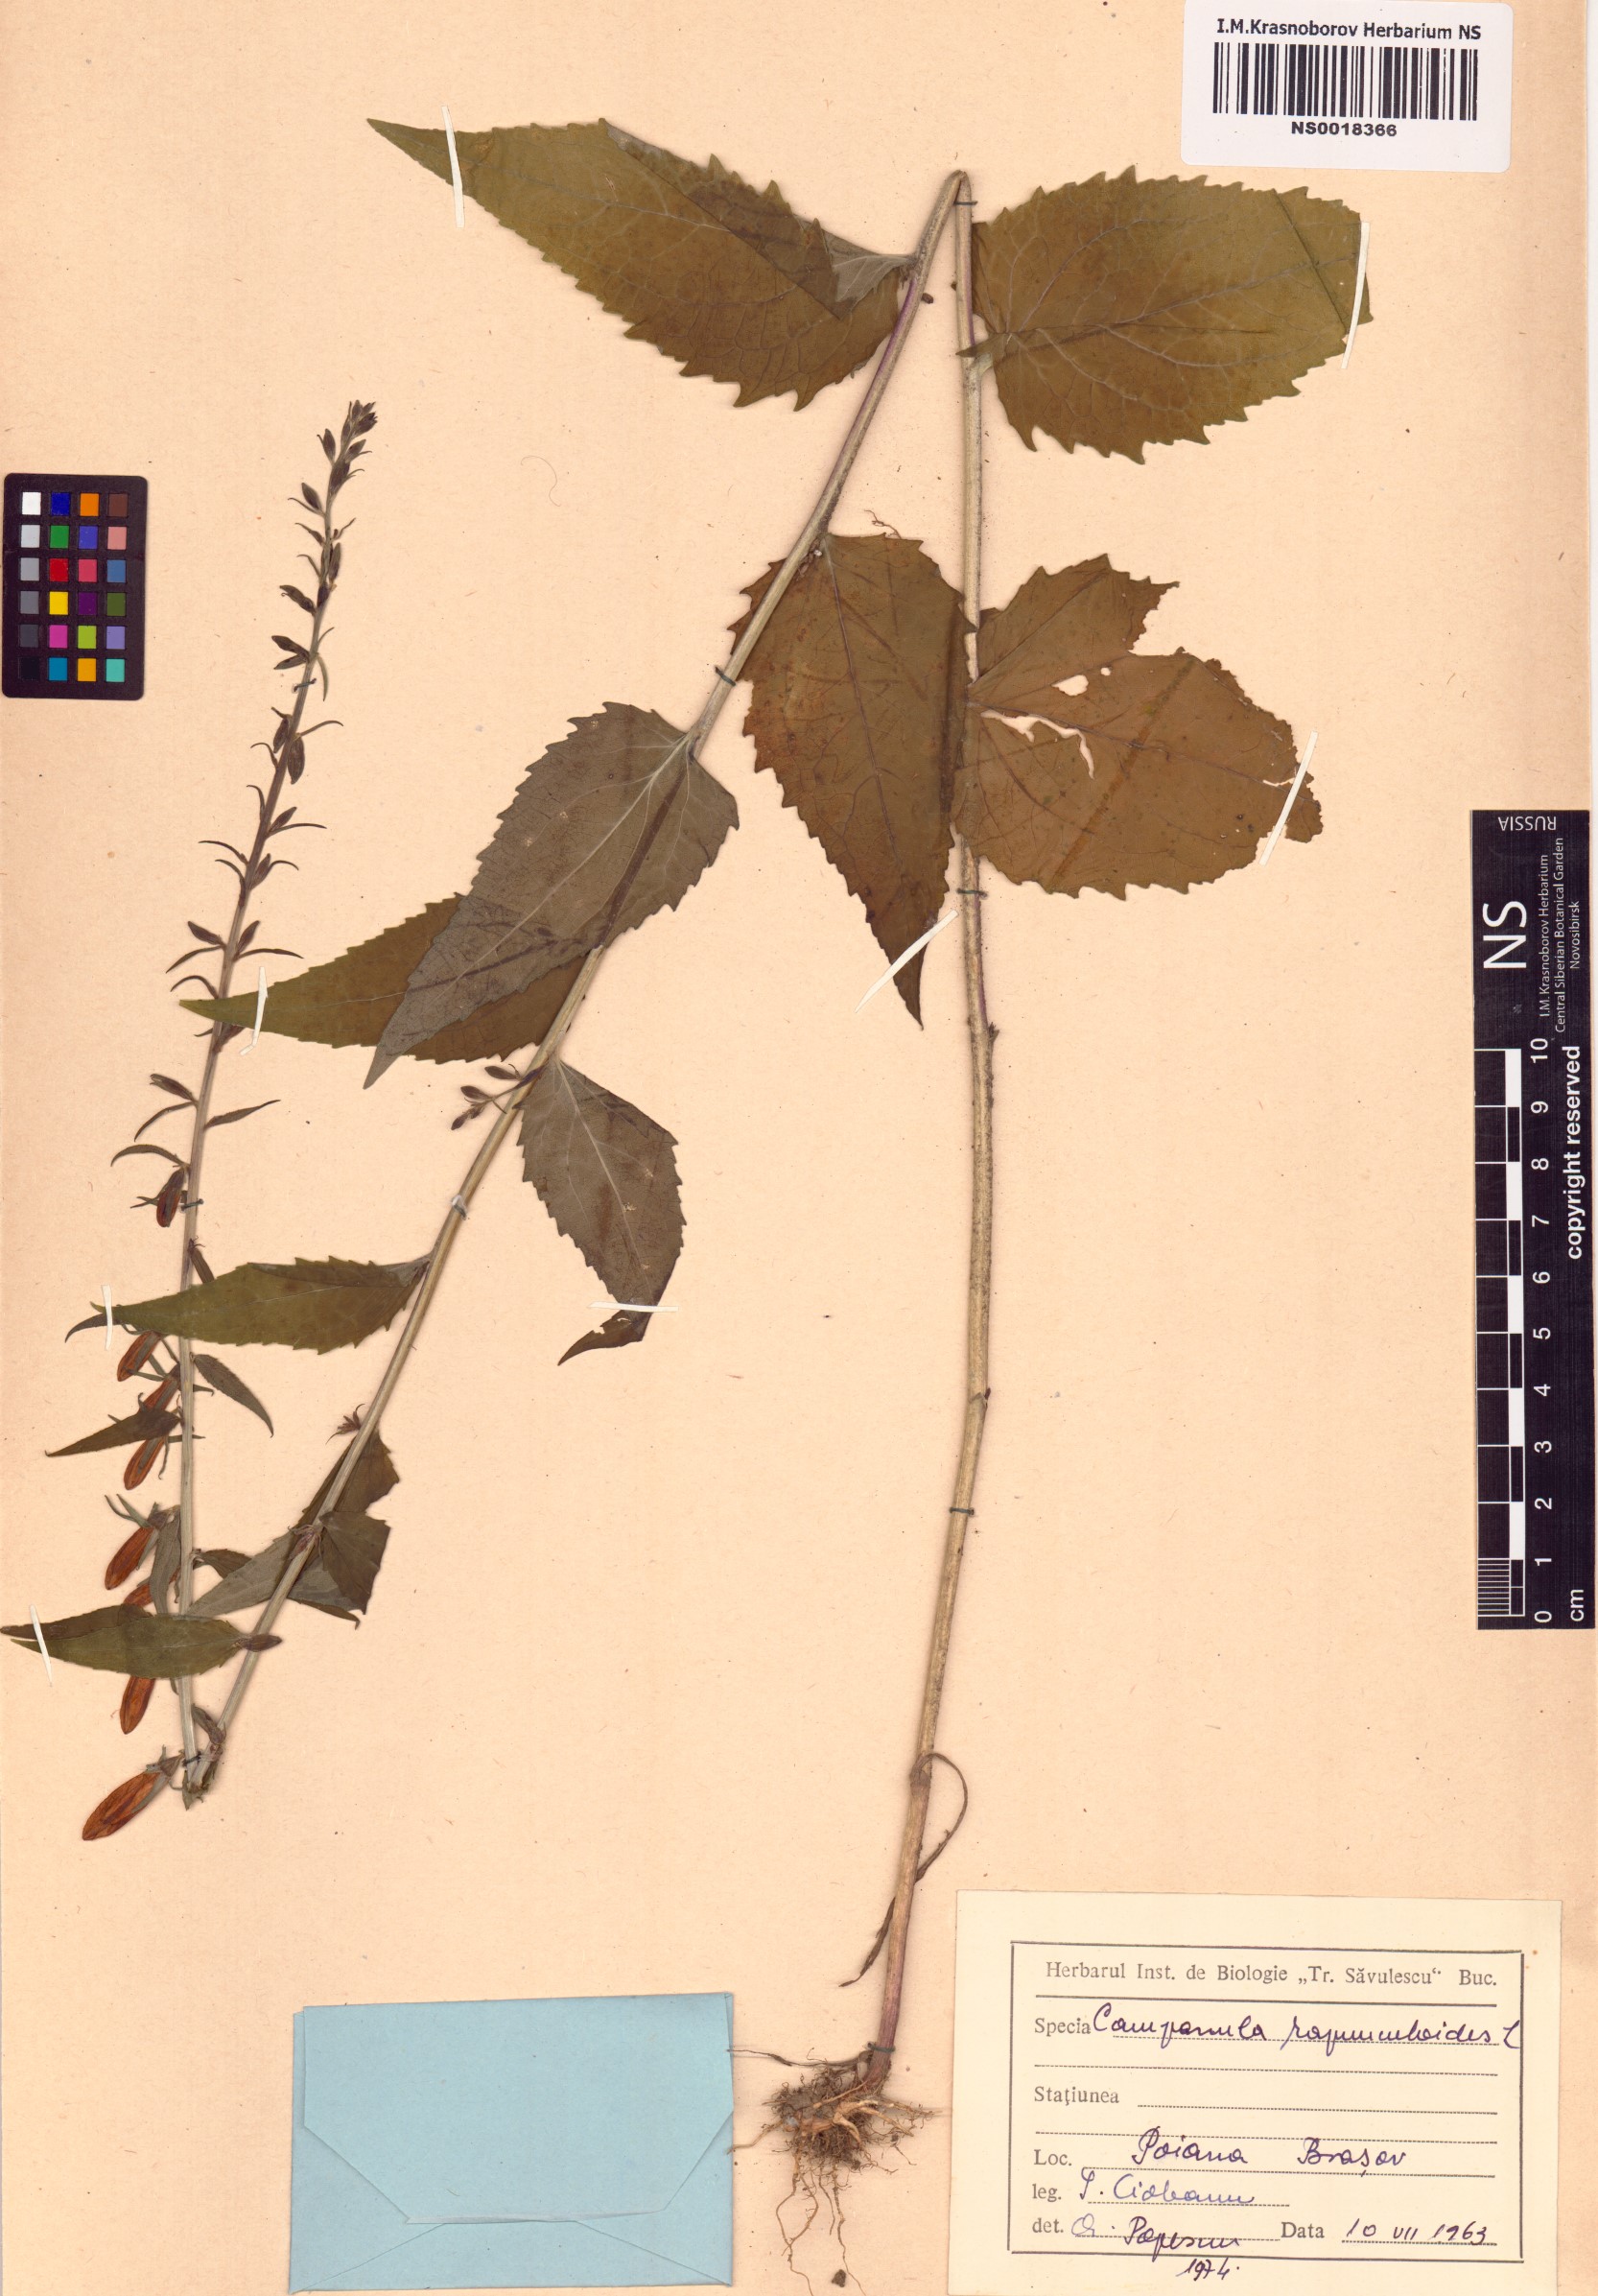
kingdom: Plantae
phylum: Tracheophyta
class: Magnoliopsida
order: Asterales
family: Campanulaceae
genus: Campanula
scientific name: Campanula rapunculoides
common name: Creeping bellflower
